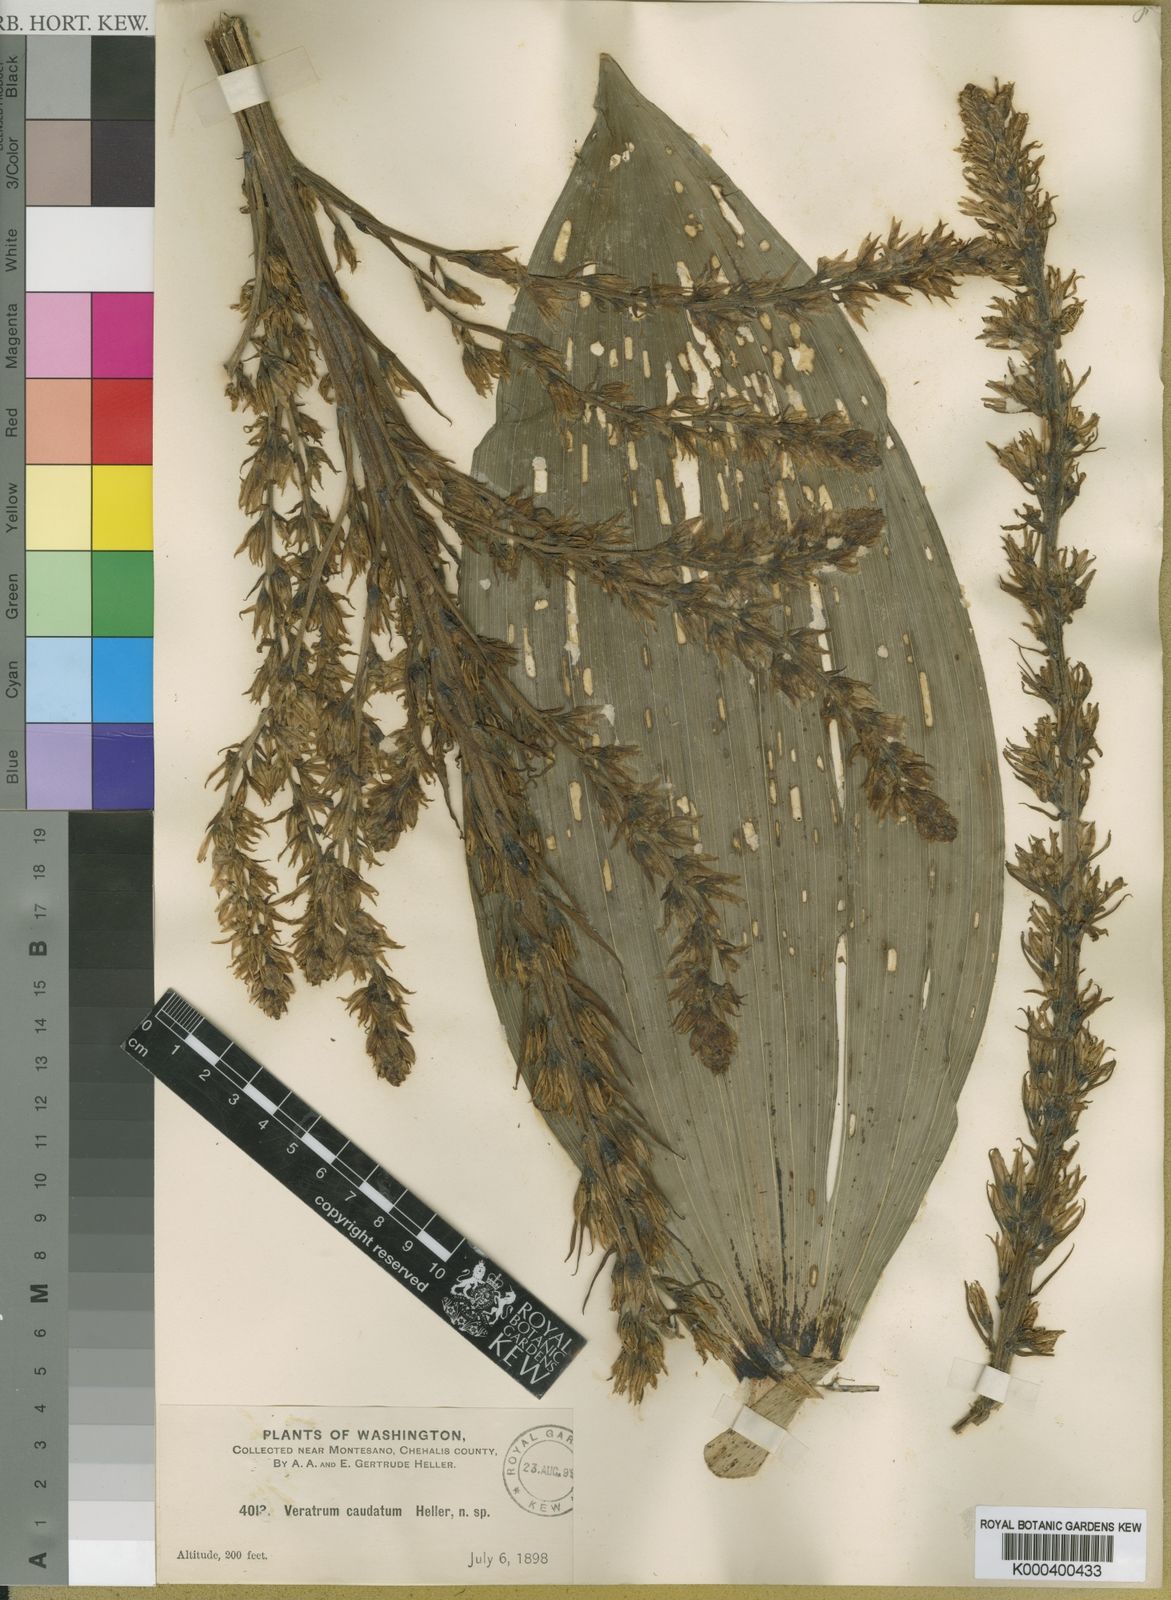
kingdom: Plantae
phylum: Tracheophyta
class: Liliopsida
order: Liliales
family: Melanthiaceae
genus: Veratrum
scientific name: Veratrum californicum
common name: California veratrum
